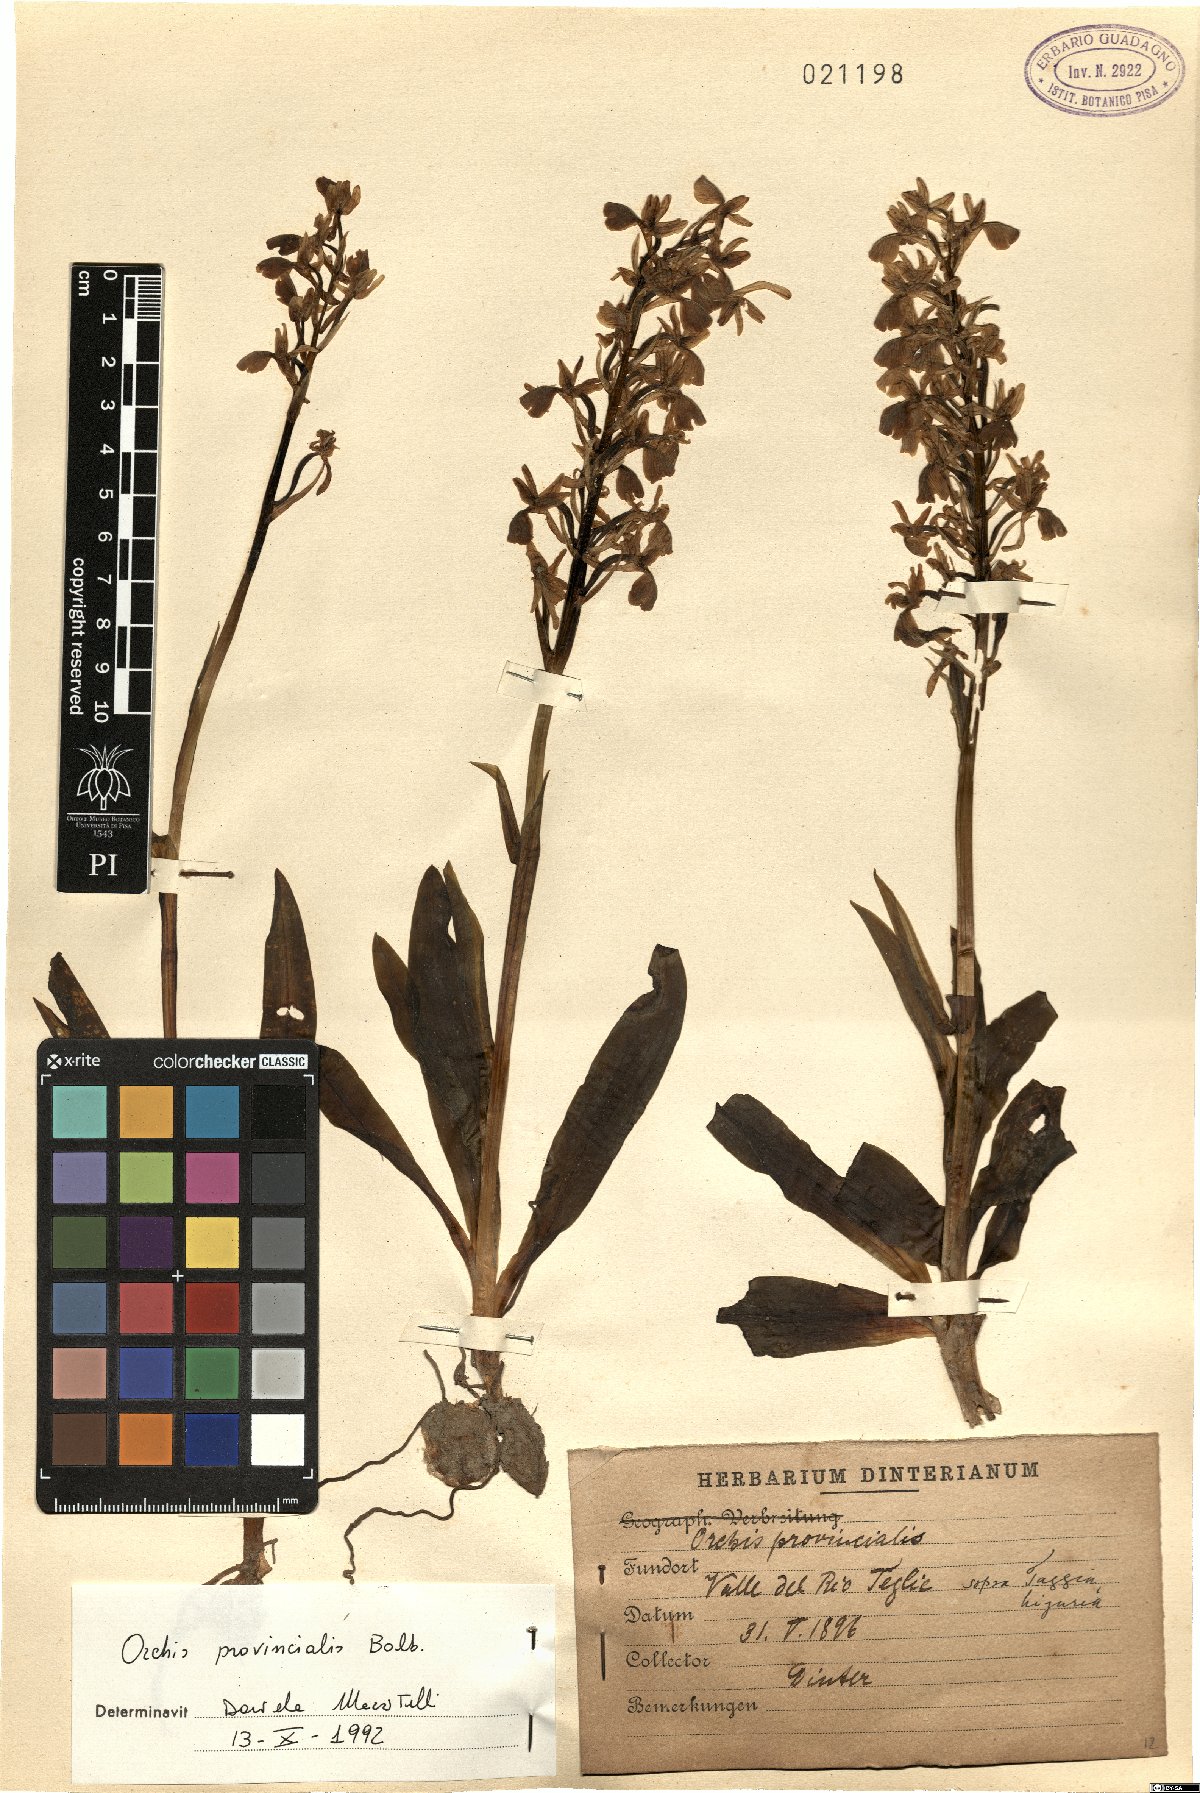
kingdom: Plantae
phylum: Tracheophyta
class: Liliopsida
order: Asparagales
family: Orchidaceae
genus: Orchis
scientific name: Orchis provincialis
